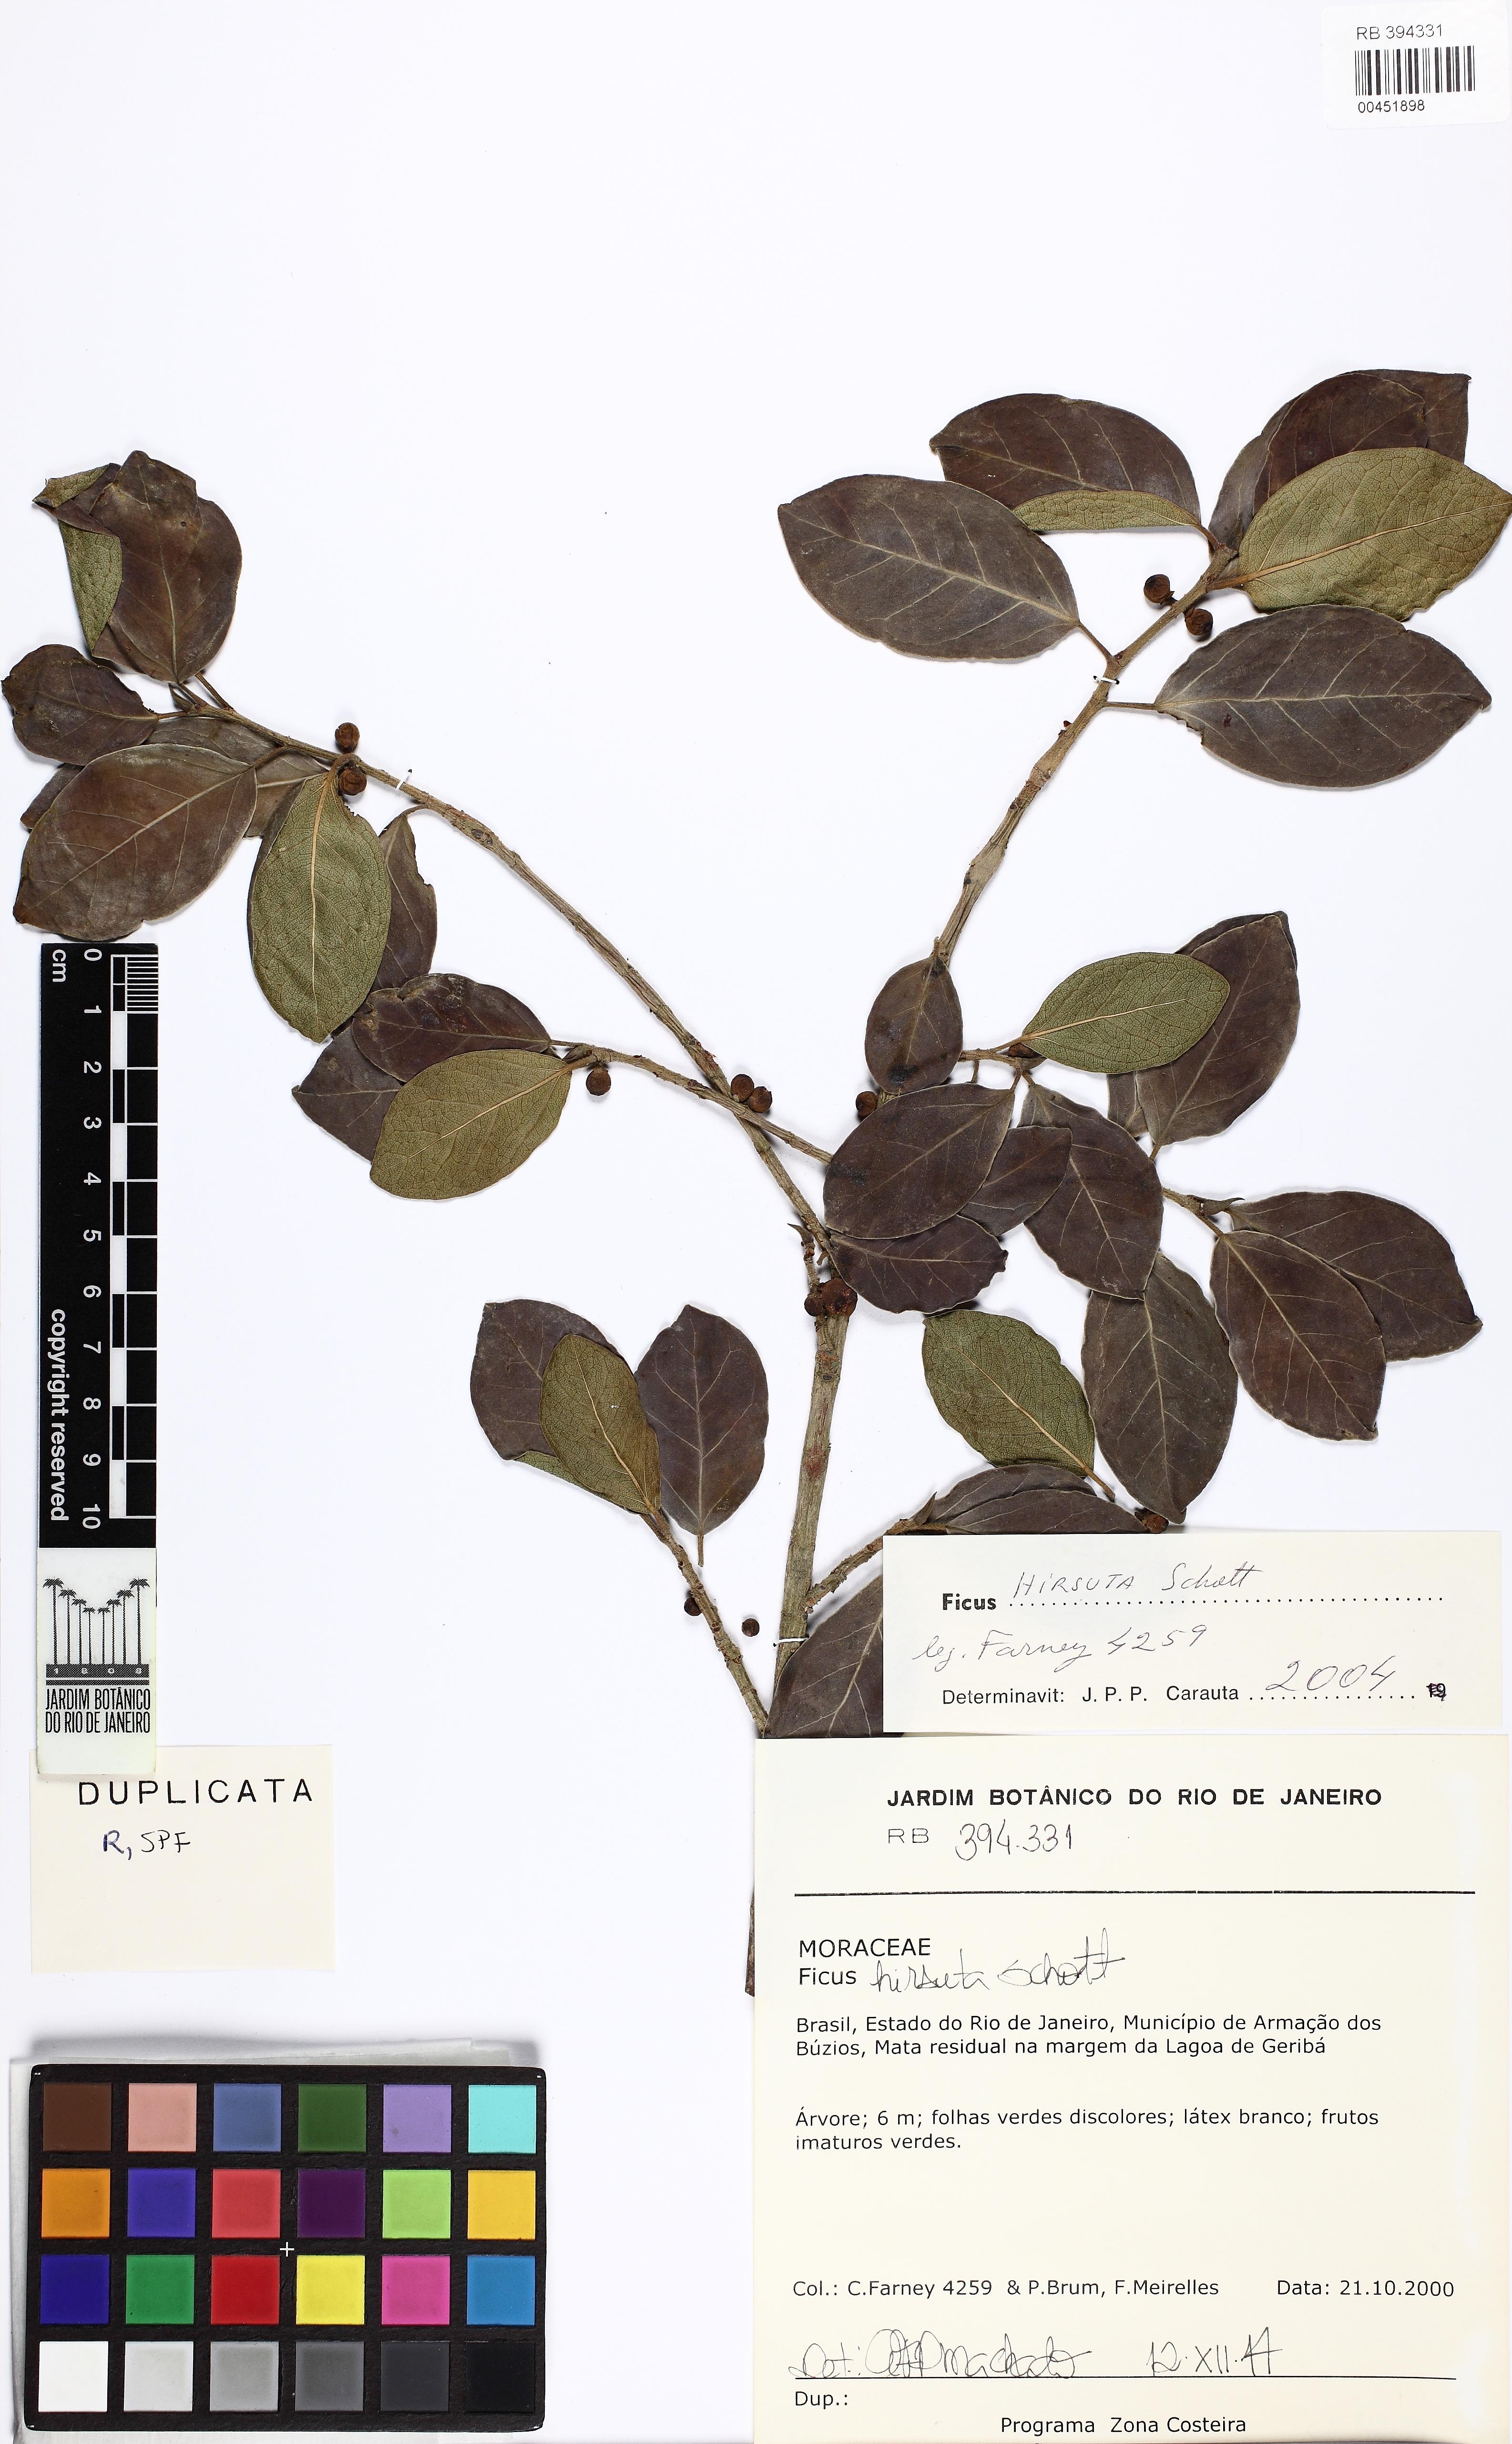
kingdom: Plantae
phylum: Tracheophyta
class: Magnoliopsida
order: Rosales
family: Moraceae
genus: Ficus
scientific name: Ficus hirsuta
